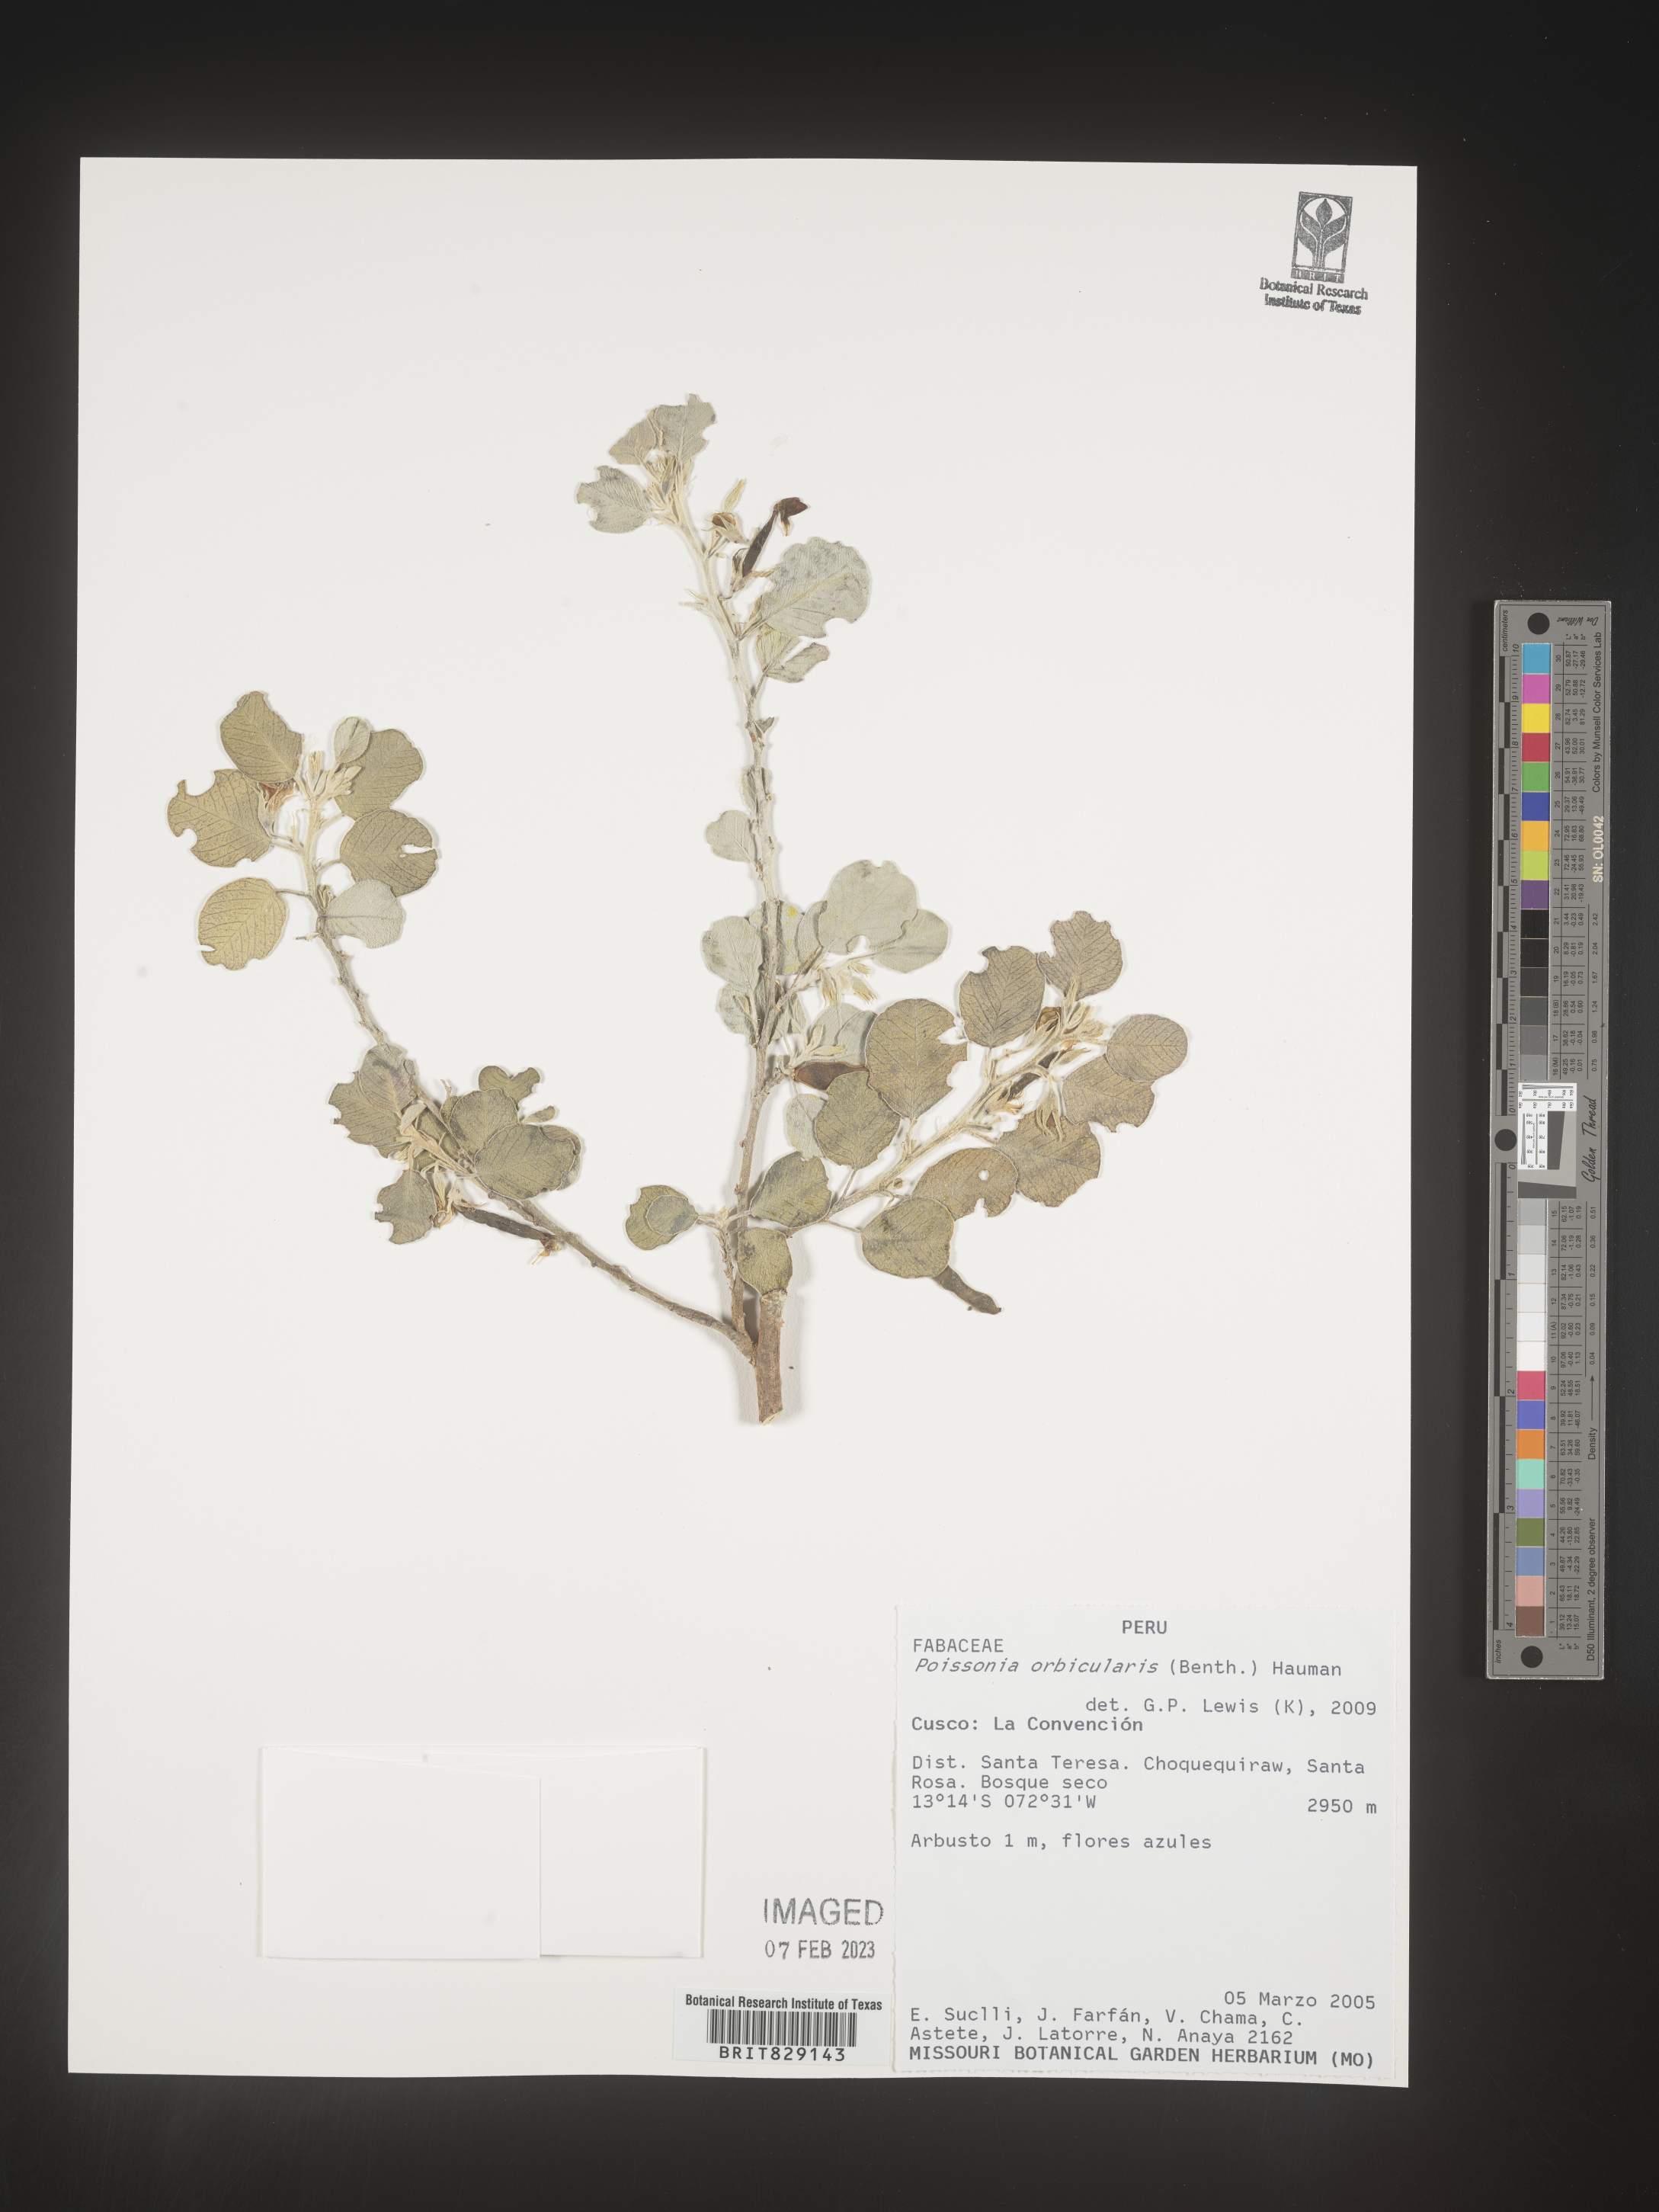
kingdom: Plantae
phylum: Tracheophyta
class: Magnoliopsida
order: Fabales
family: Fabaceae
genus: Poissonia
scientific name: Poissonia
